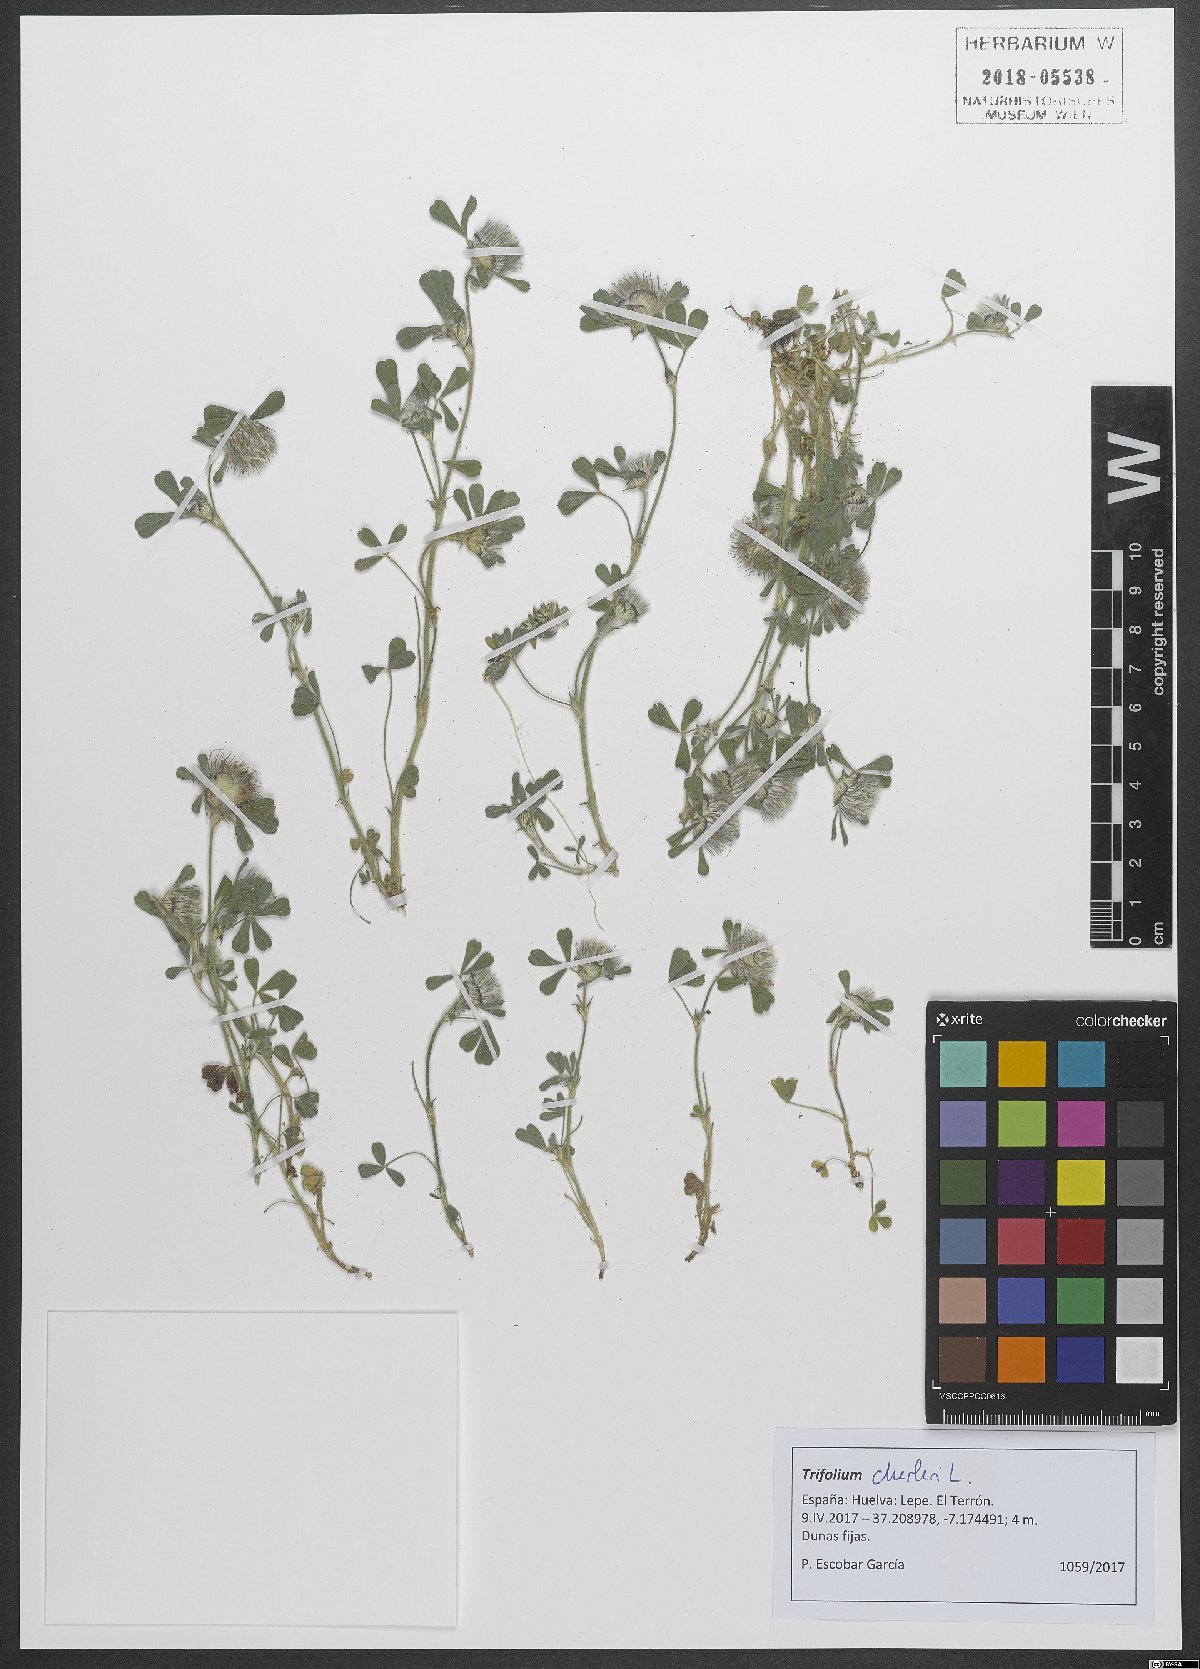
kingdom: Plantae
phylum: Tracheophyta
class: Magnoliopsida
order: Fabales
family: Fabaceae
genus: Trifolium
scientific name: Trifolium cherleri
